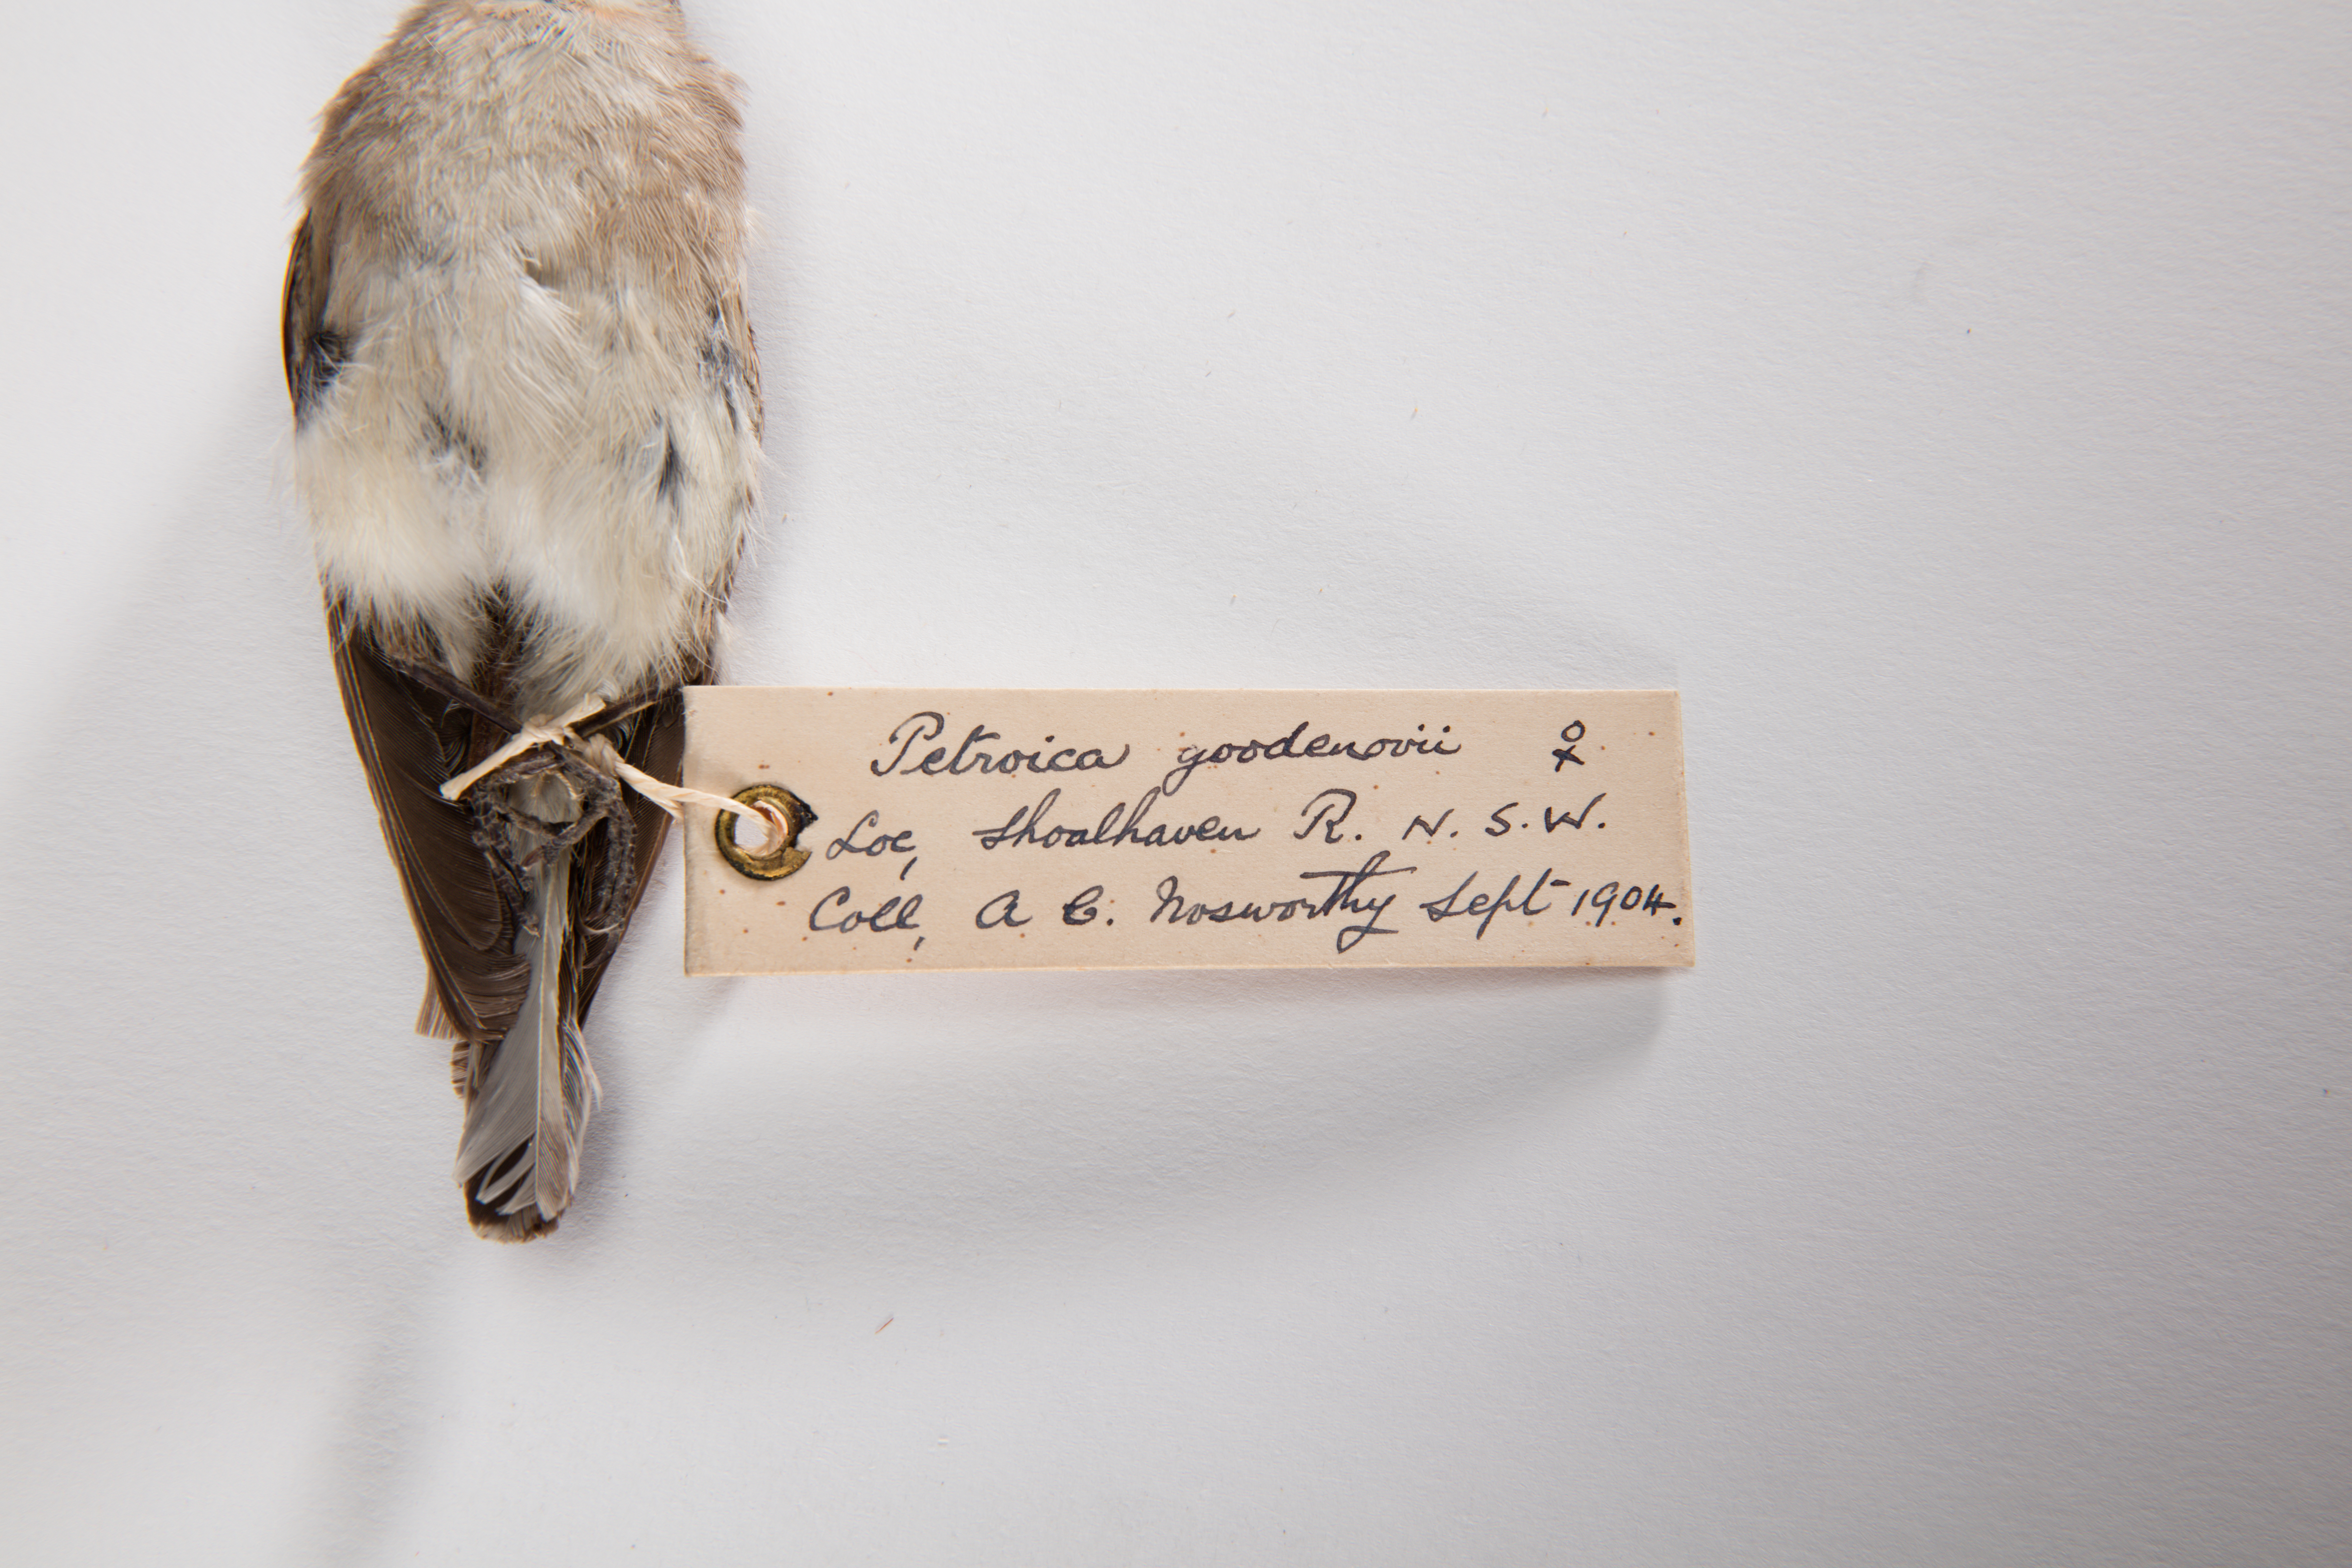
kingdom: Animalia
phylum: Chordata
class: Aves
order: Passeriformes
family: Petroicidae
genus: Petroica
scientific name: Petroica goodenovii
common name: Red-capped robin
